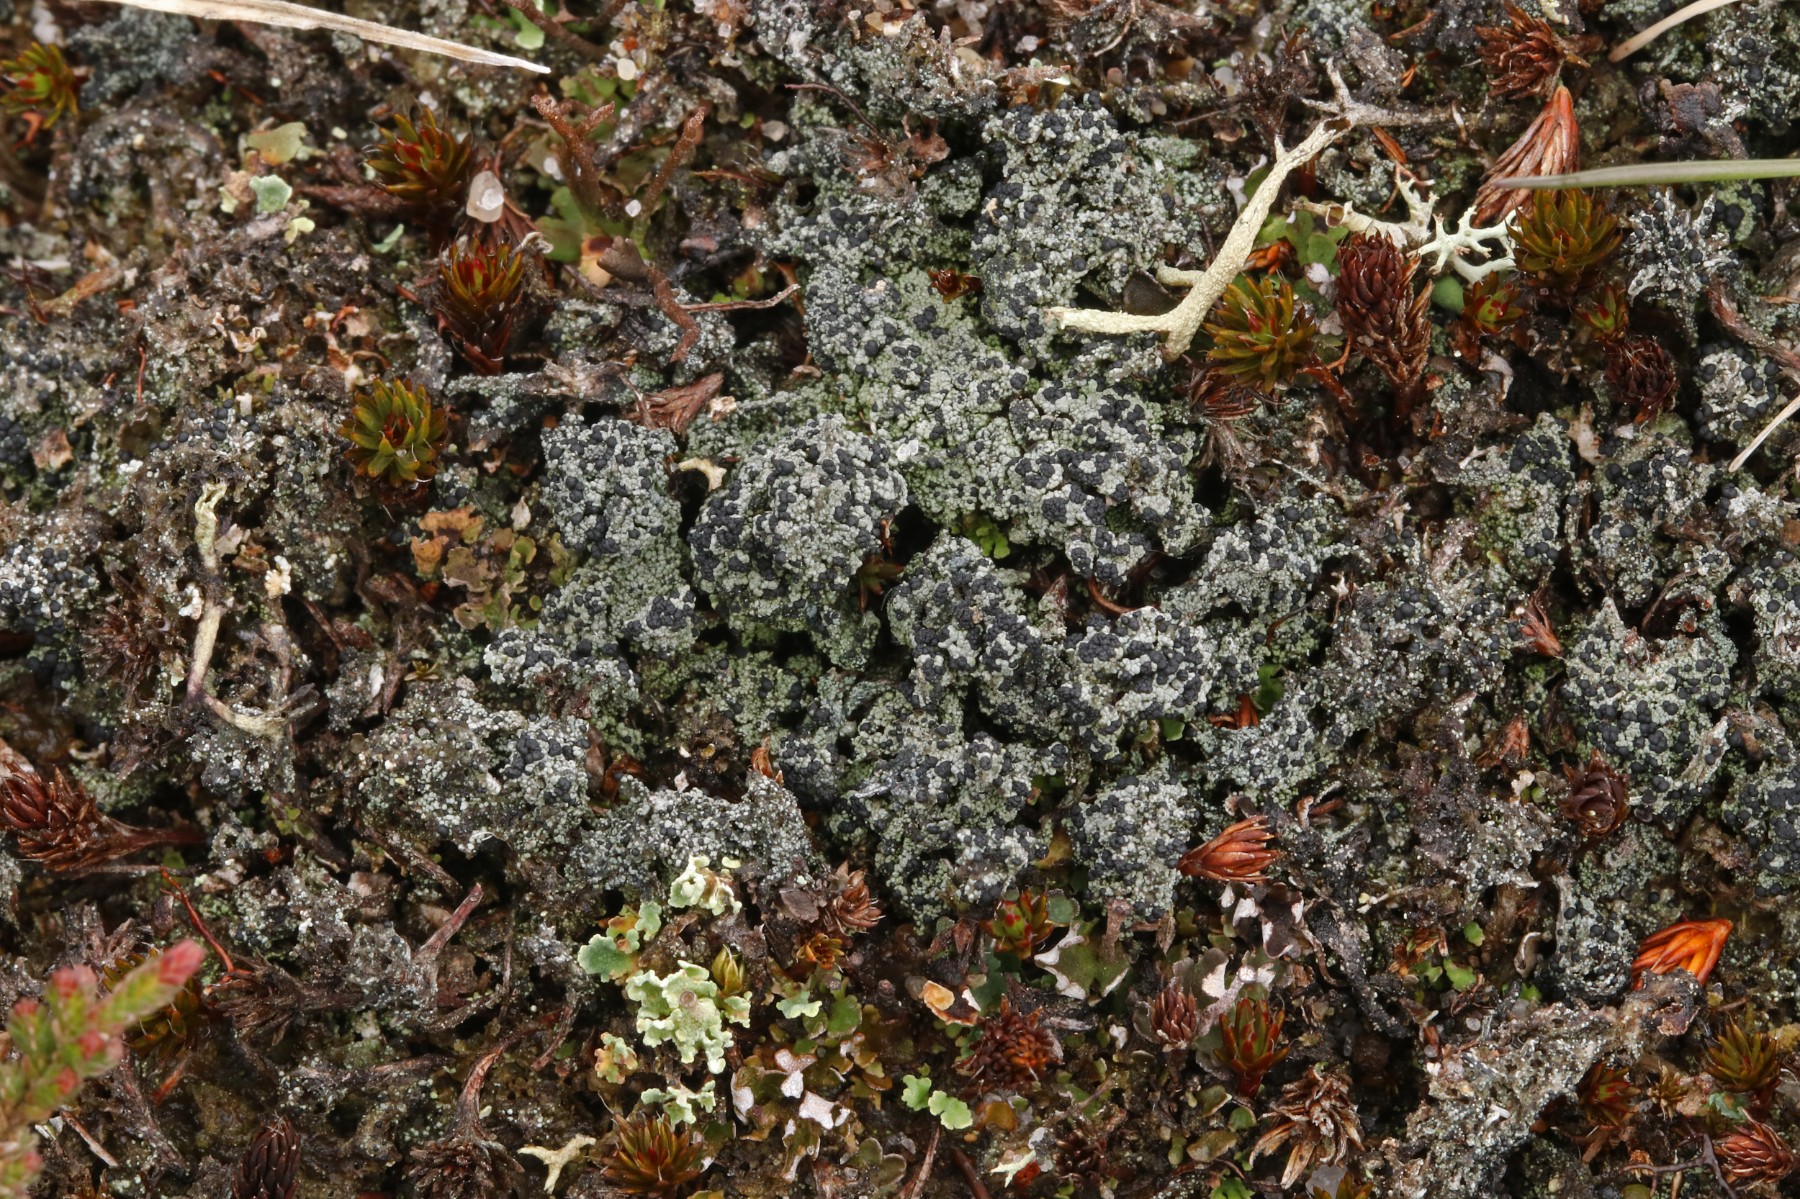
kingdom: Fungi
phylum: Ascomycota
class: Lecanoromycetes
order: Lecanorales
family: Byssolomataceae
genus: Micarea
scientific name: Micarea lignaria
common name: tørve-knaplav
